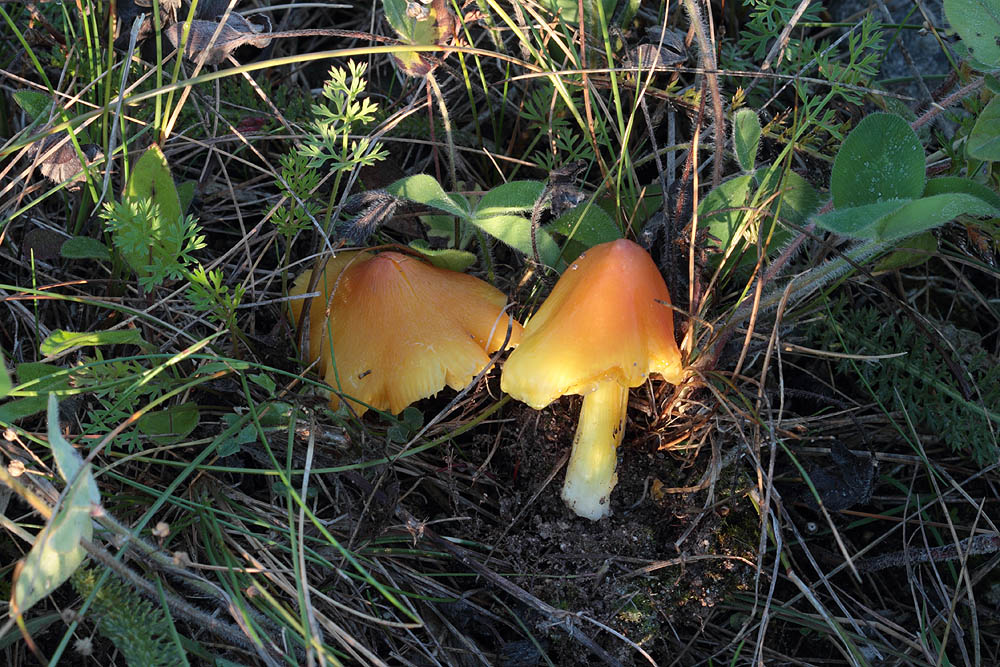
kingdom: Fungi
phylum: Basidiomycota
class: Agaricomycetes
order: Agaricales
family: Hygrophoraceae
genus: Hygrocybe
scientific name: Hygrocybe acutoconica
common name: Konrads vokshat
